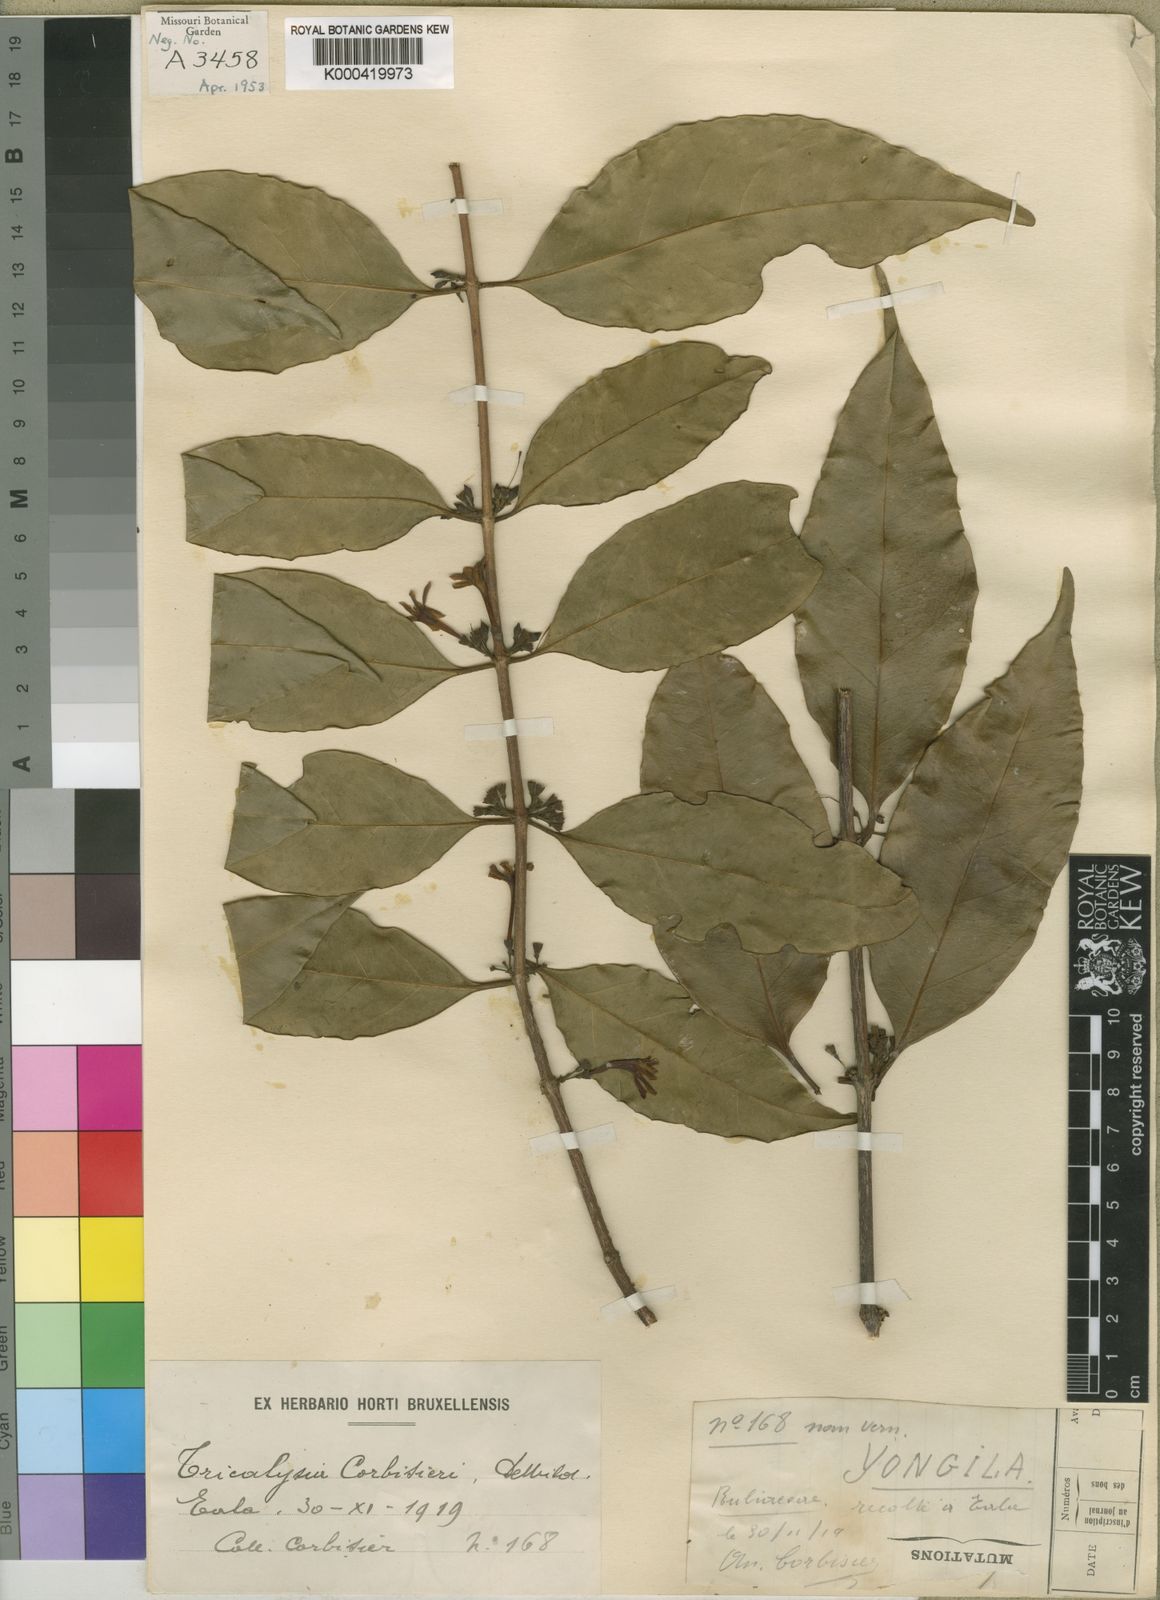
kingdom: Plantae
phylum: Tracheophyta
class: Magnoliopsida
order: Gentianales
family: Rubiaceae
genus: Tricalysia
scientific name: Tricalysia longituba
